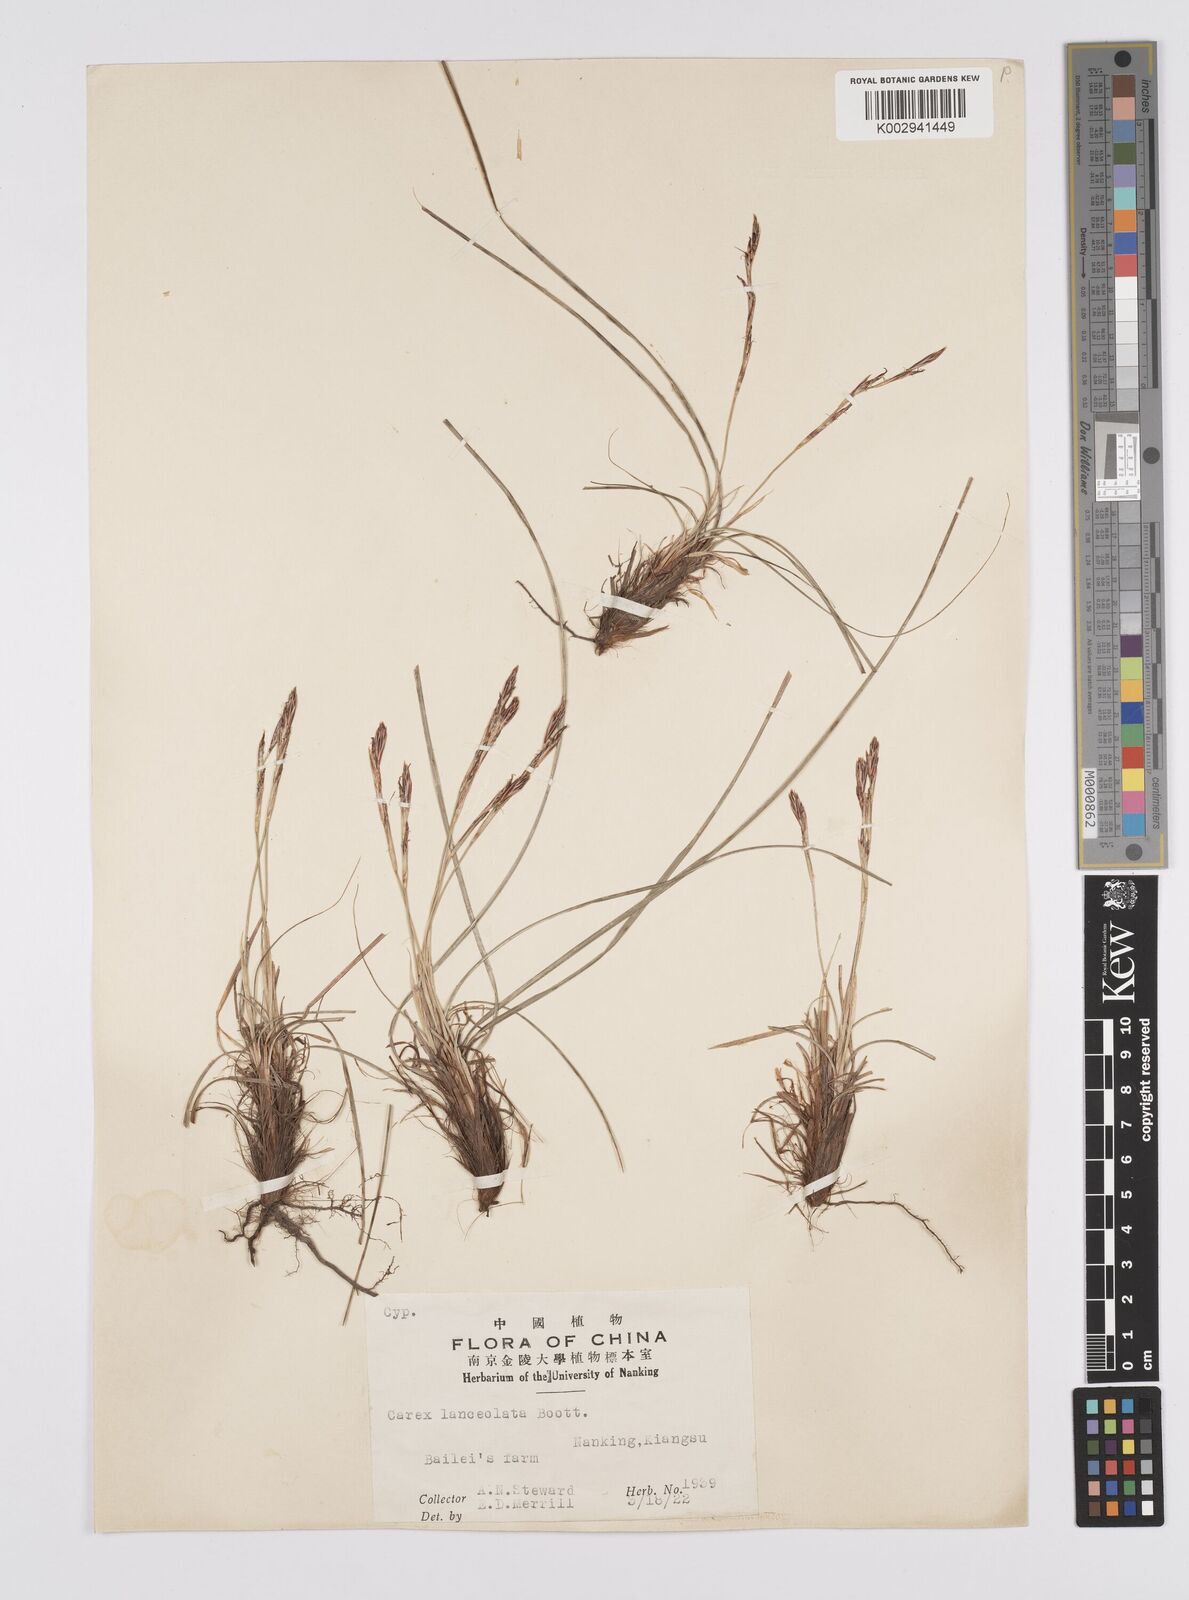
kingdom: Plantae
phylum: Tracheophyta
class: Liliopsida
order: Poales
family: Cyperaceae
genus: Carex
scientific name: Carex lanceolata
